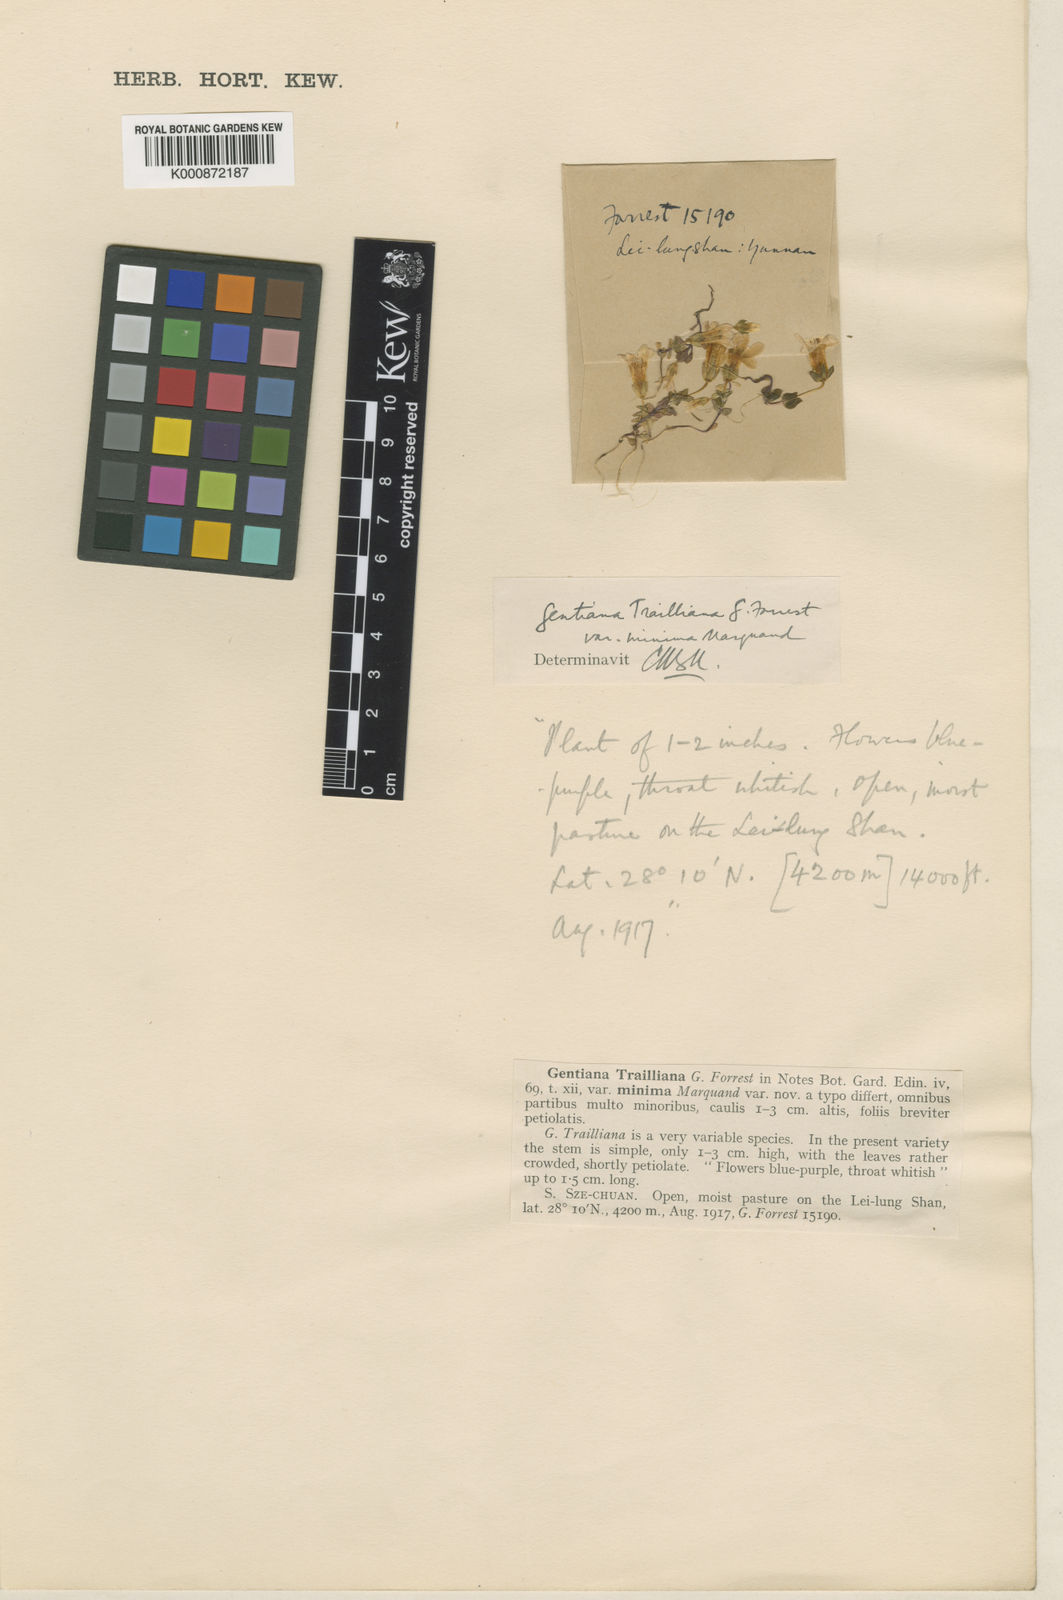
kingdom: Plantae
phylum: Tracheophyta
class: Magnoliopsida
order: Gentianales
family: Gentianaceae
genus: Comastoma
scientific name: Comastoma traillianum
